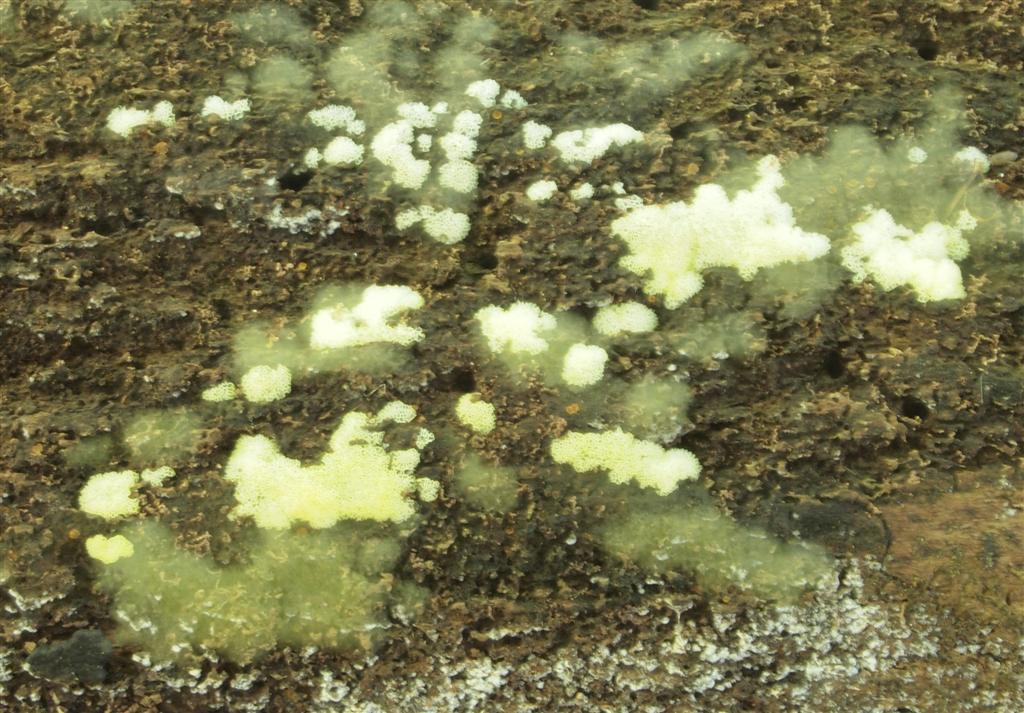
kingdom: Protozoa
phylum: Mycetozoa
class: Protosteliomycetes
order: Ceratiomyxales
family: Ceratiomyxaceae
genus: Ceratiomyxa
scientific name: Ceratiomyxa fruticulosa
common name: Honeycomb coral slime mold
